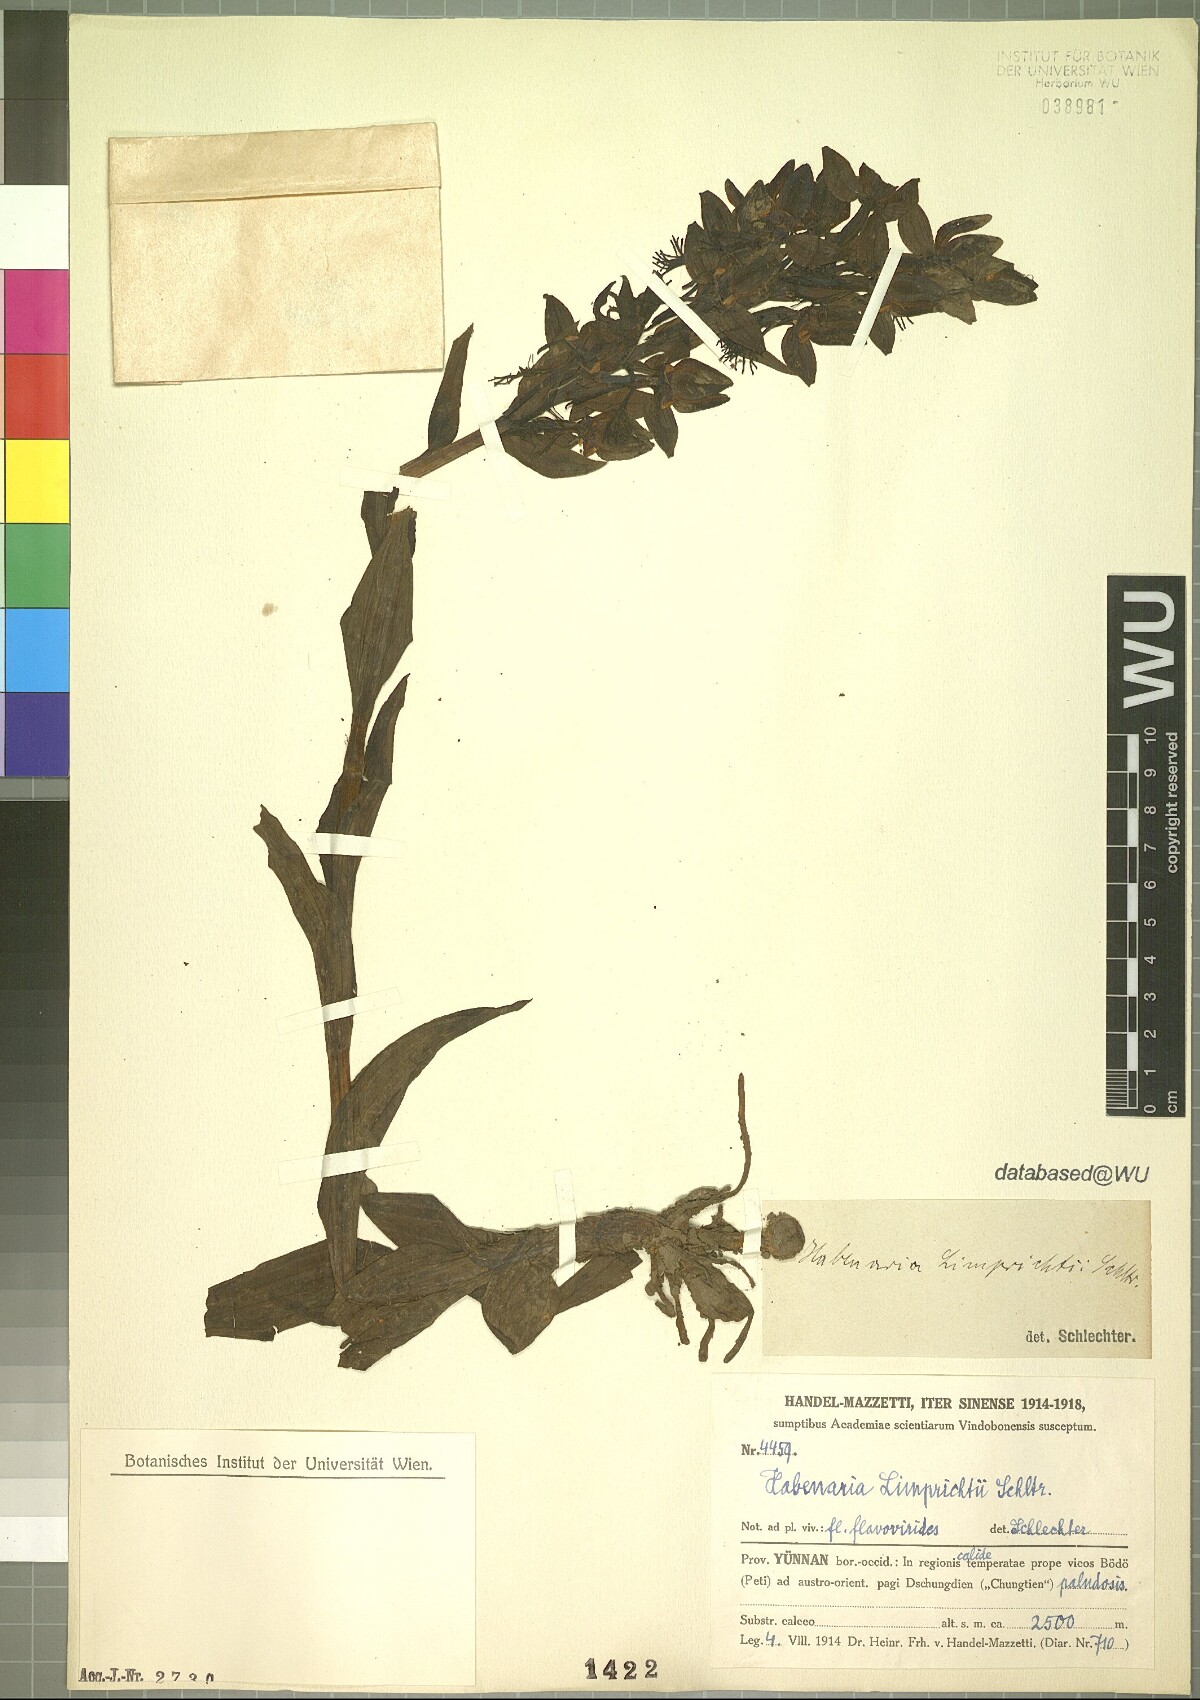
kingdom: Plantae
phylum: Tracheophyta
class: Liliopsida
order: Asparagales
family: Orchidaceae
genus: Habenaria
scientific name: Habenaria limprichtii
